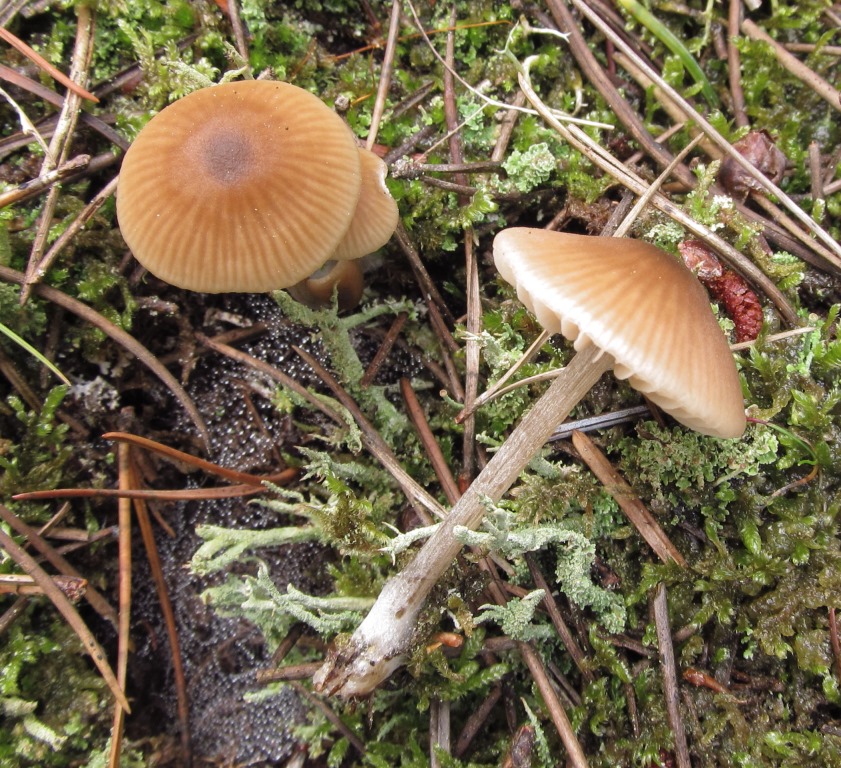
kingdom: Fungi
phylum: Basidiomycota
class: Agaricomycetes
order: Agaricales
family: Entolomataceae
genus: Entoloma
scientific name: Entoloma cetratum
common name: voks-rødblad
